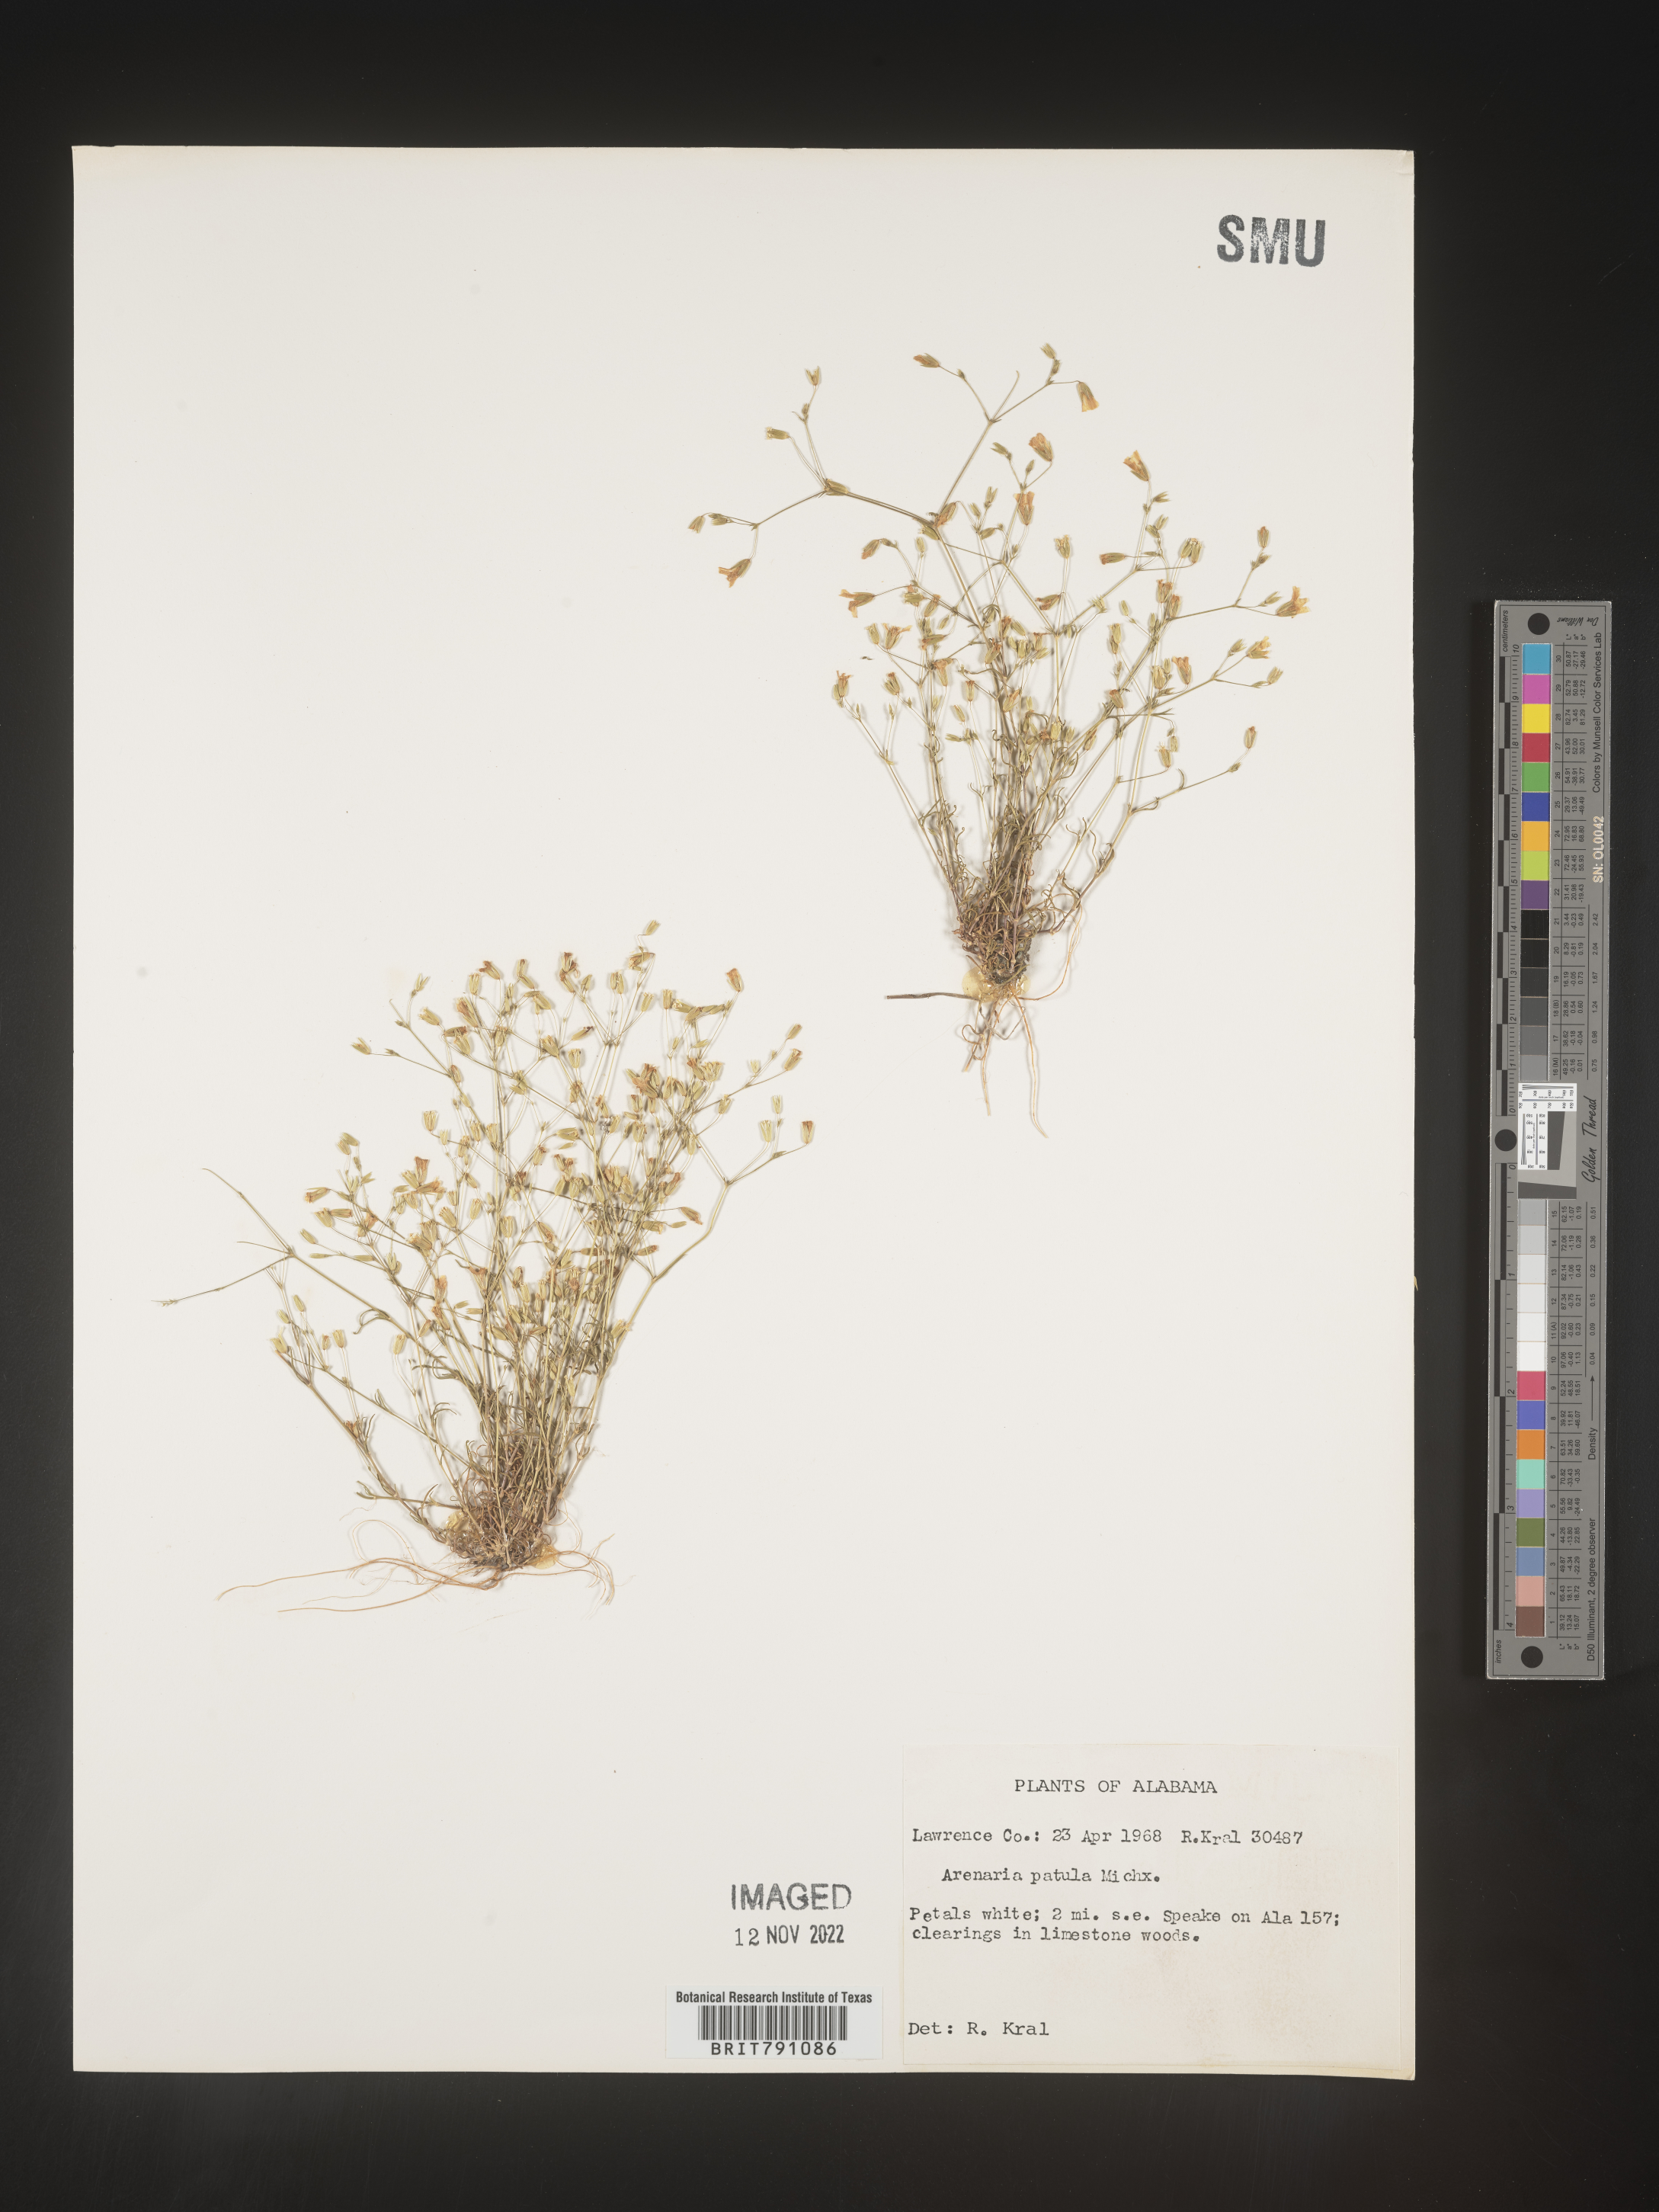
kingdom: Plantae
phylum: Tracheophyta
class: Magnoliopsida
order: Caryophyllales
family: Caryophyllaceae
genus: Mononeuria
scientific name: Mononeuria patula
